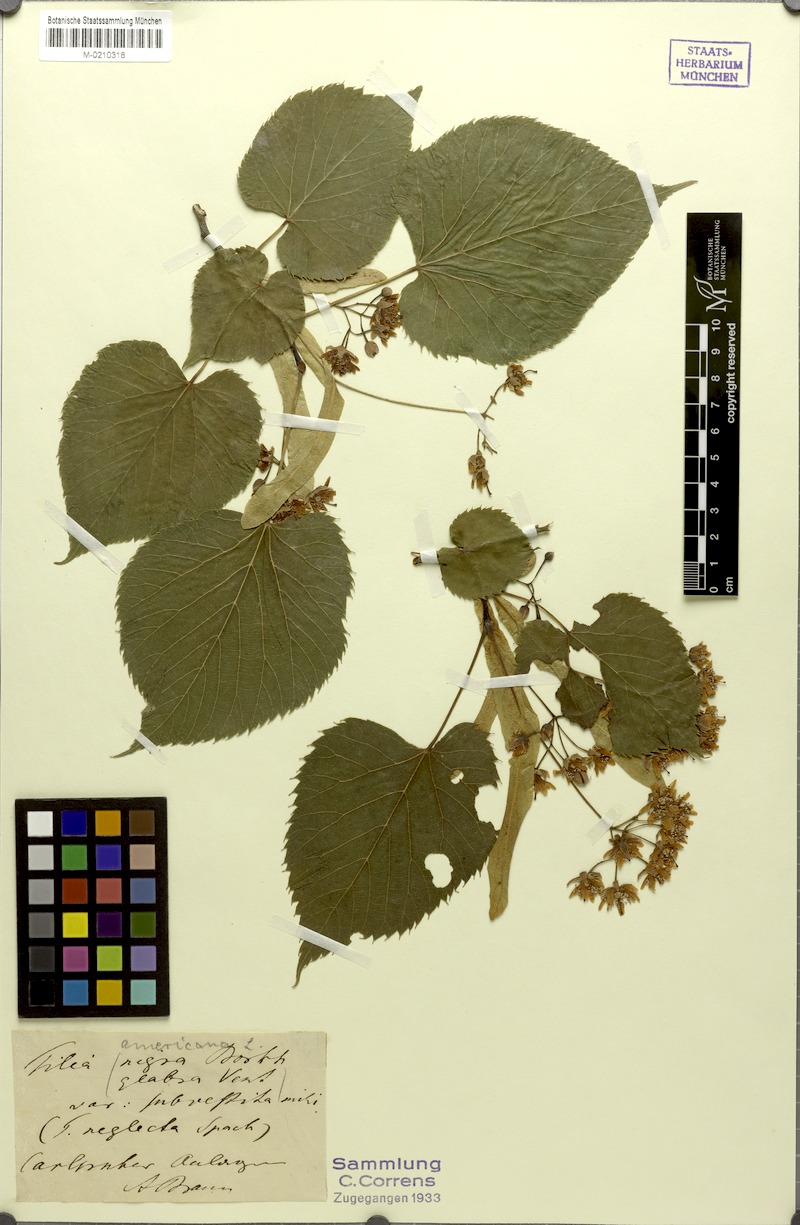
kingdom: Plantae
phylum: Tracheophyta
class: Magnoliopsida
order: Malvales
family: Malvaceae
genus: Tilia
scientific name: Tilia americana
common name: Basswood
